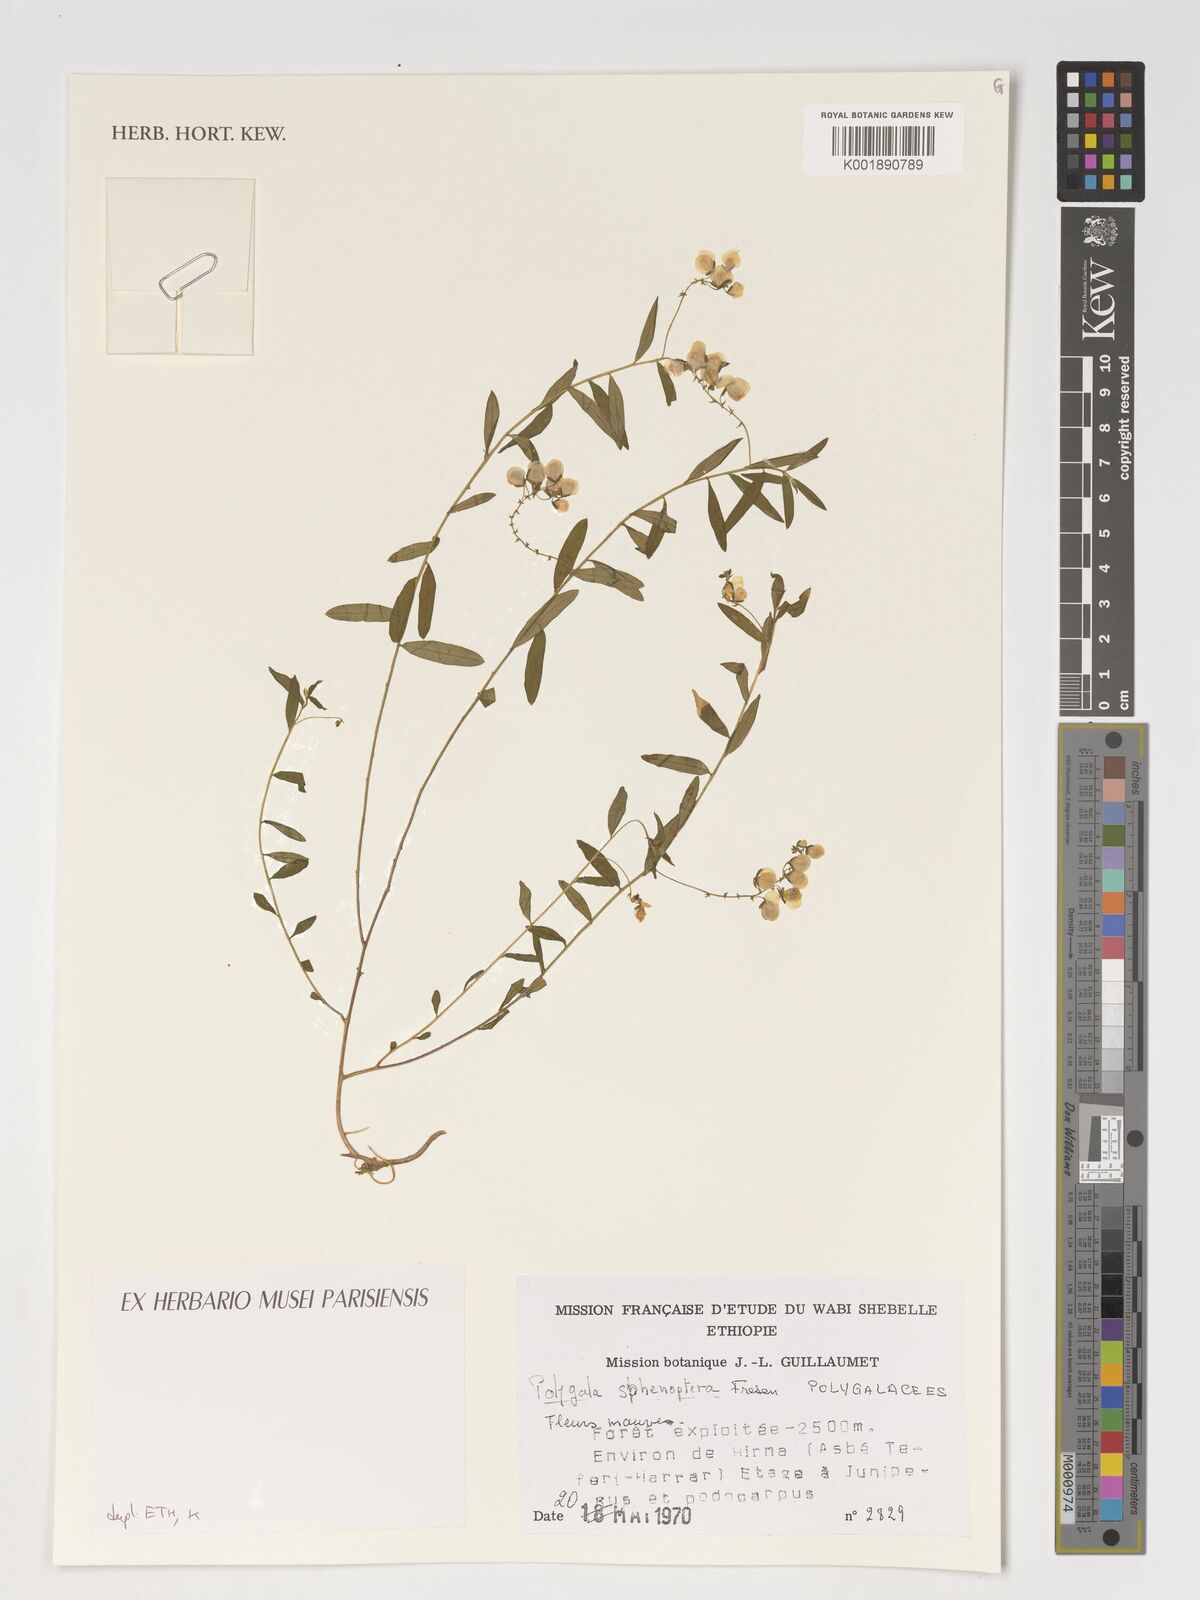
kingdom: Plantae
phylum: Tracheophyta
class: Magnoliopsida
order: Fabales
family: Polygalaceae
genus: Polygala
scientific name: Polygala sphenoptera
